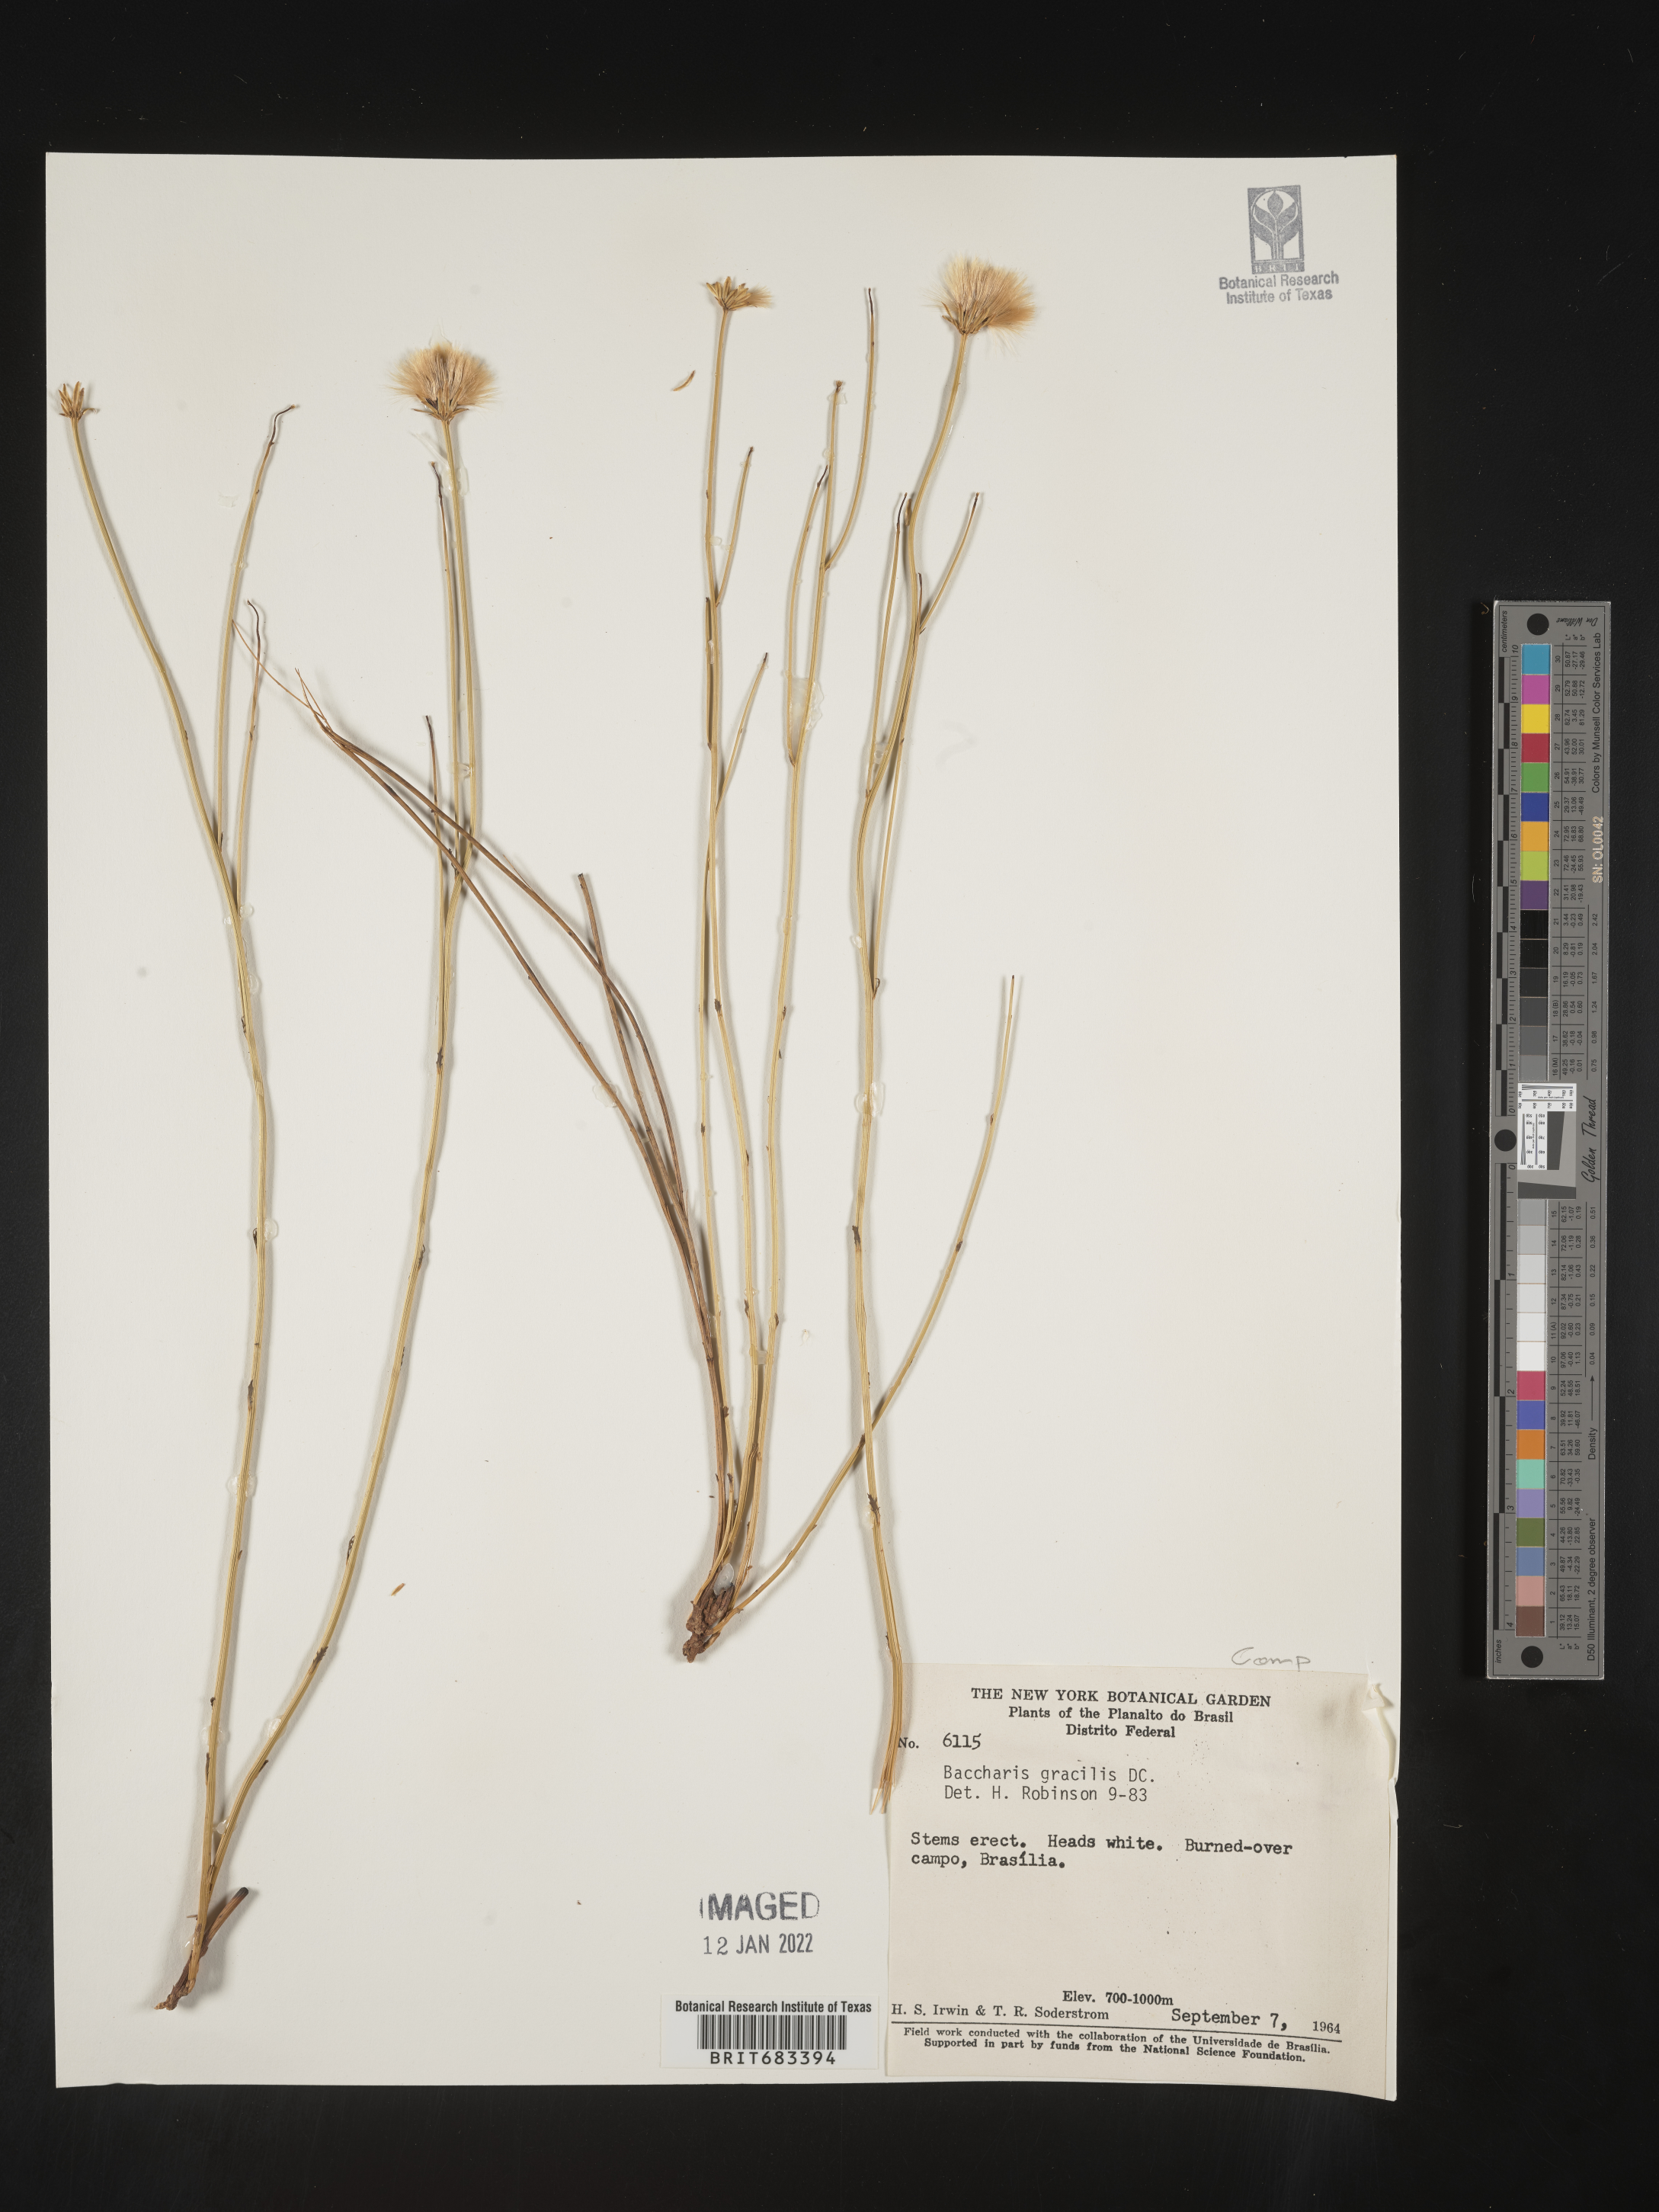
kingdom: Plantae
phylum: Tracheophyta
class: Magnoliopsida
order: Asterales
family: Asteraceae
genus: Baccharis
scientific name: Baccharis
